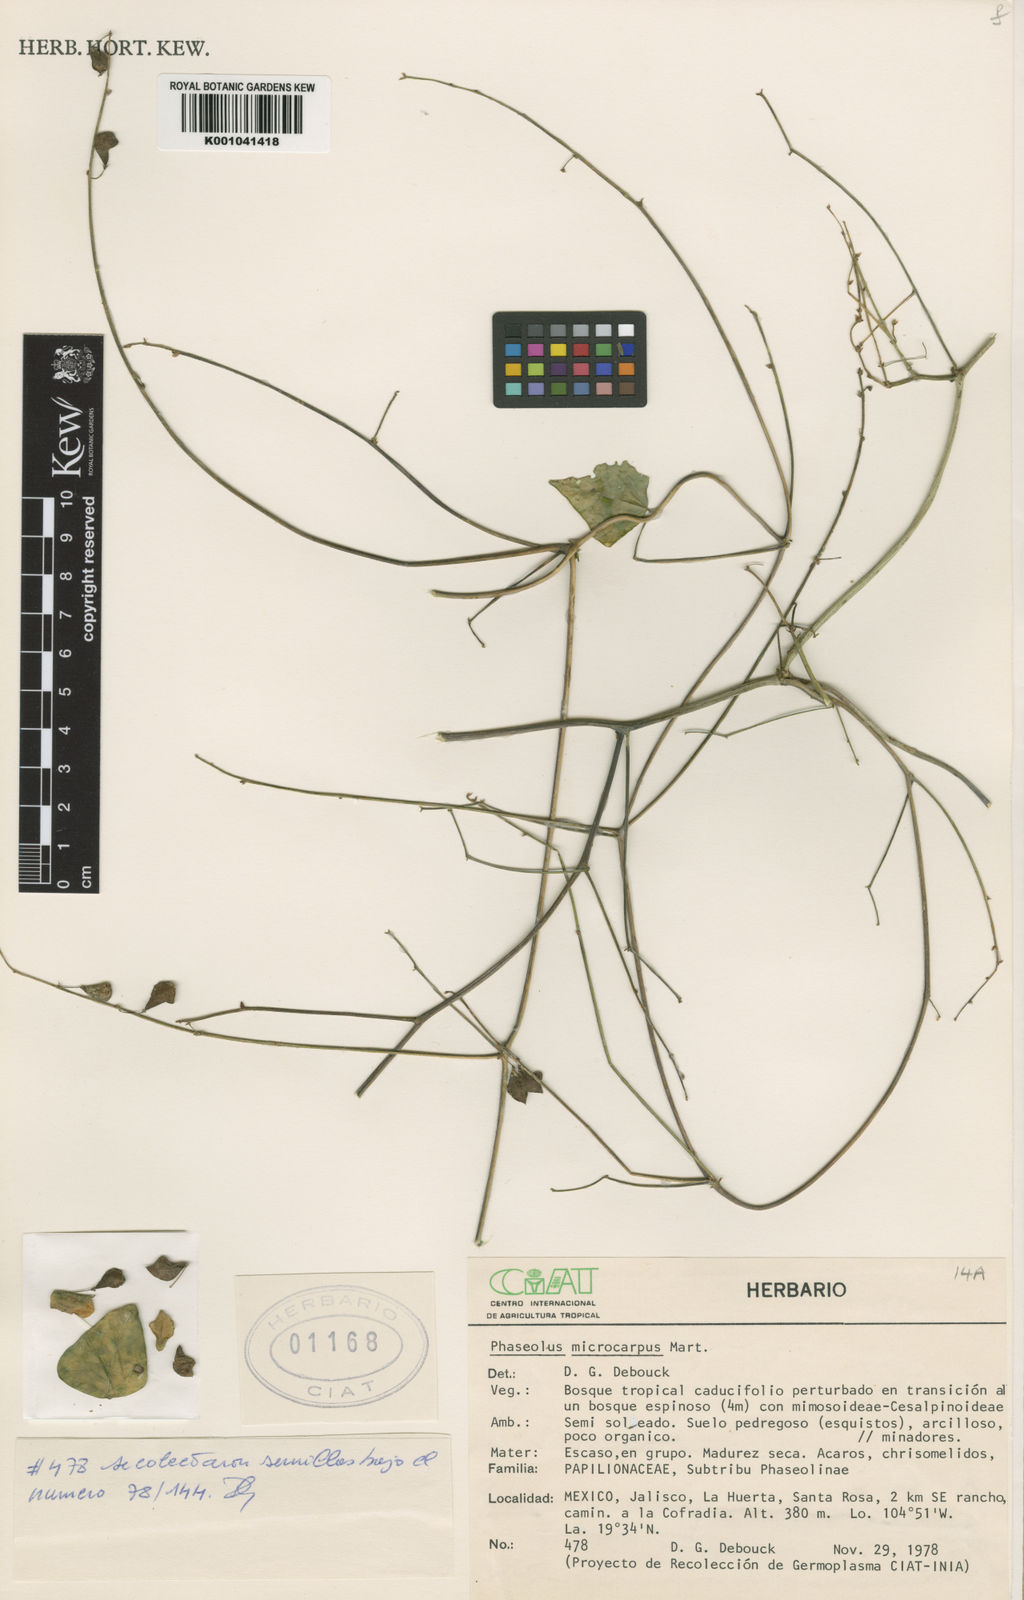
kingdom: Plantae
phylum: Tracheophyta
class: Magnoliopsida
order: Fabales
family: Fabaceae
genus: Phaseolus
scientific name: Phaseolus microcarpus
